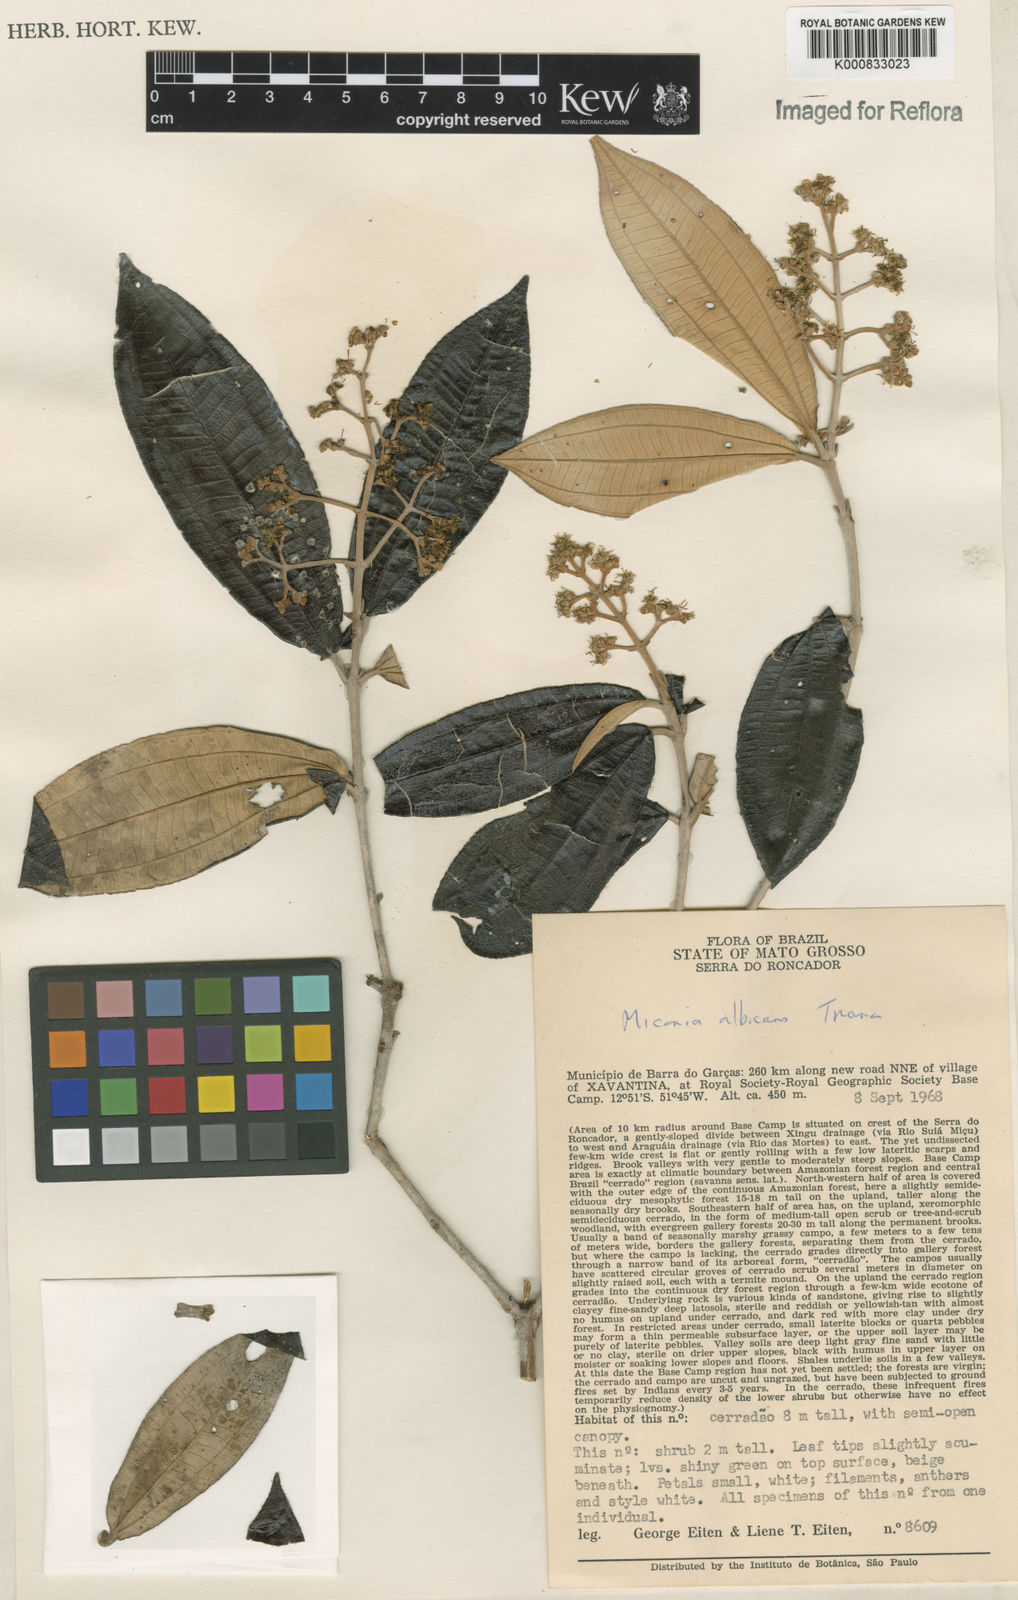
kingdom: Plantae
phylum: Tracheophyta
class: Magnoliopsida
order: Myrtales
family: Melastomataceae
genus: Miconia
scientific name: Miconia albicans
